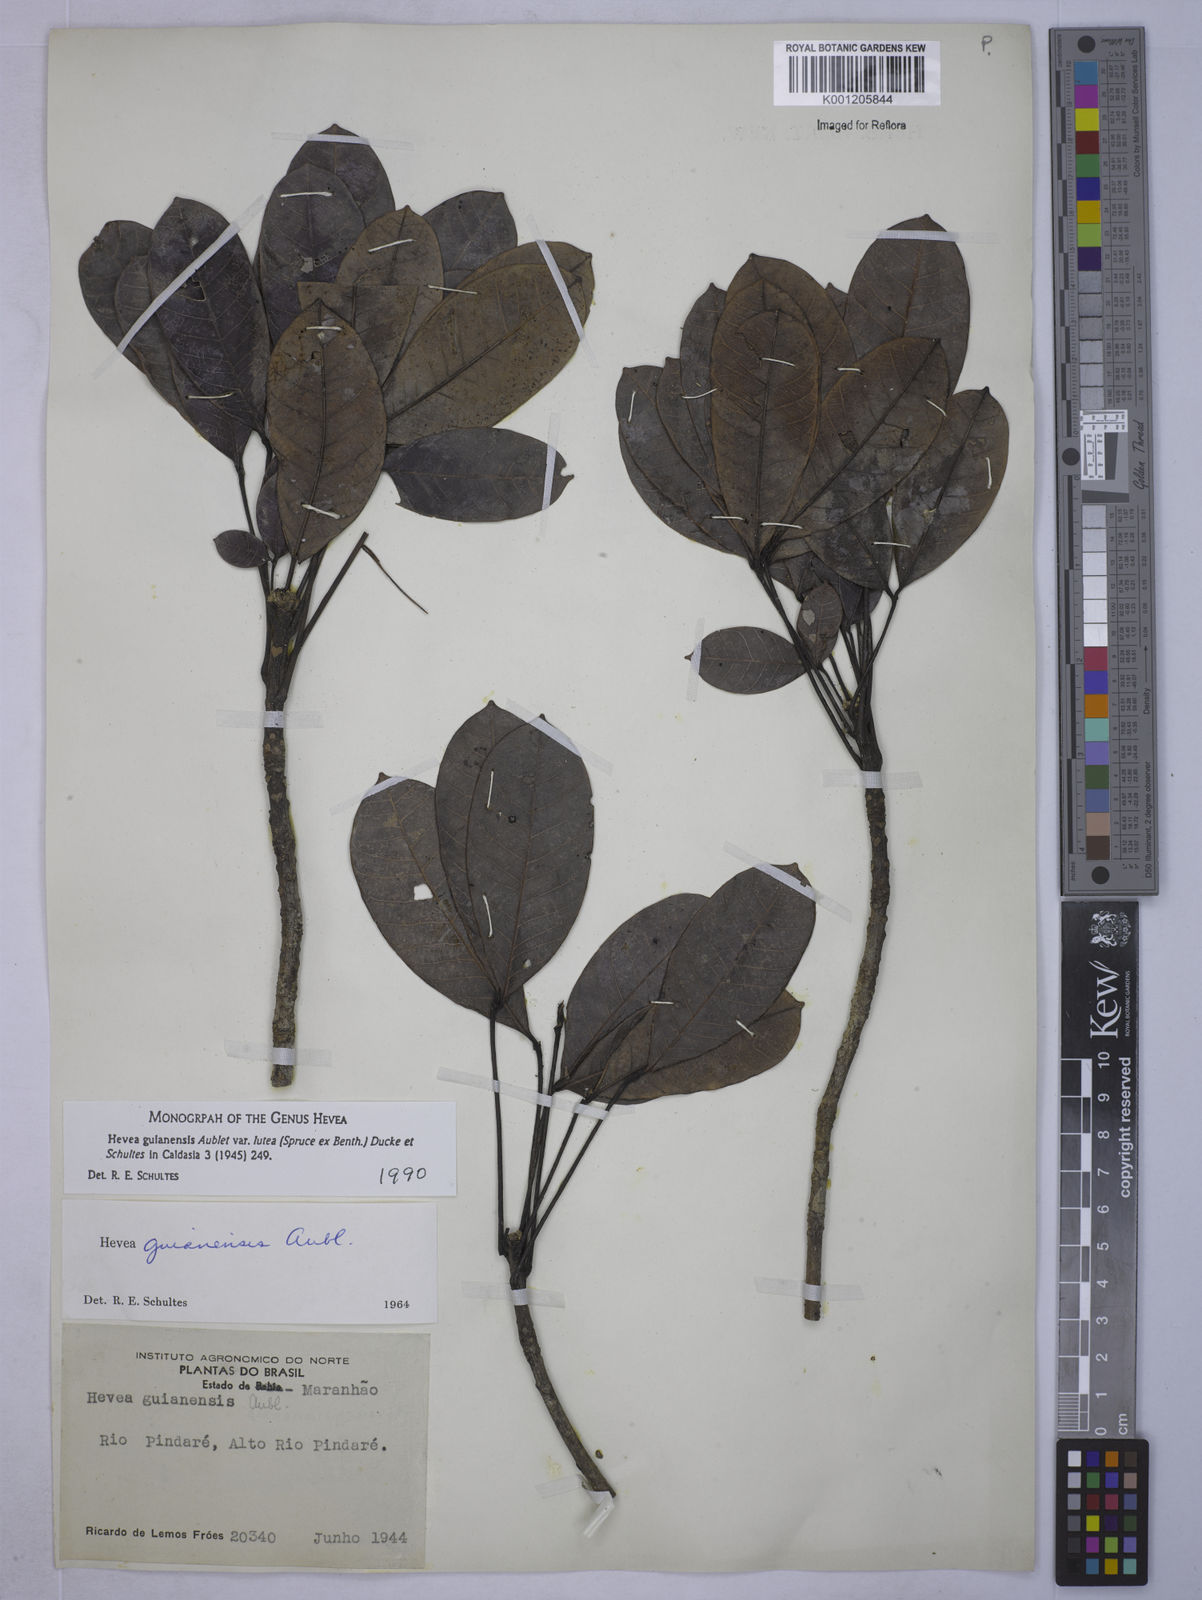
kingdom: Plantae
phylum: Tracheophyta
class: Magnoliopsida
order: Malpighiales
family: Euphorbiaceae
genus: Hevea
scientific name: Hevea guianensis
